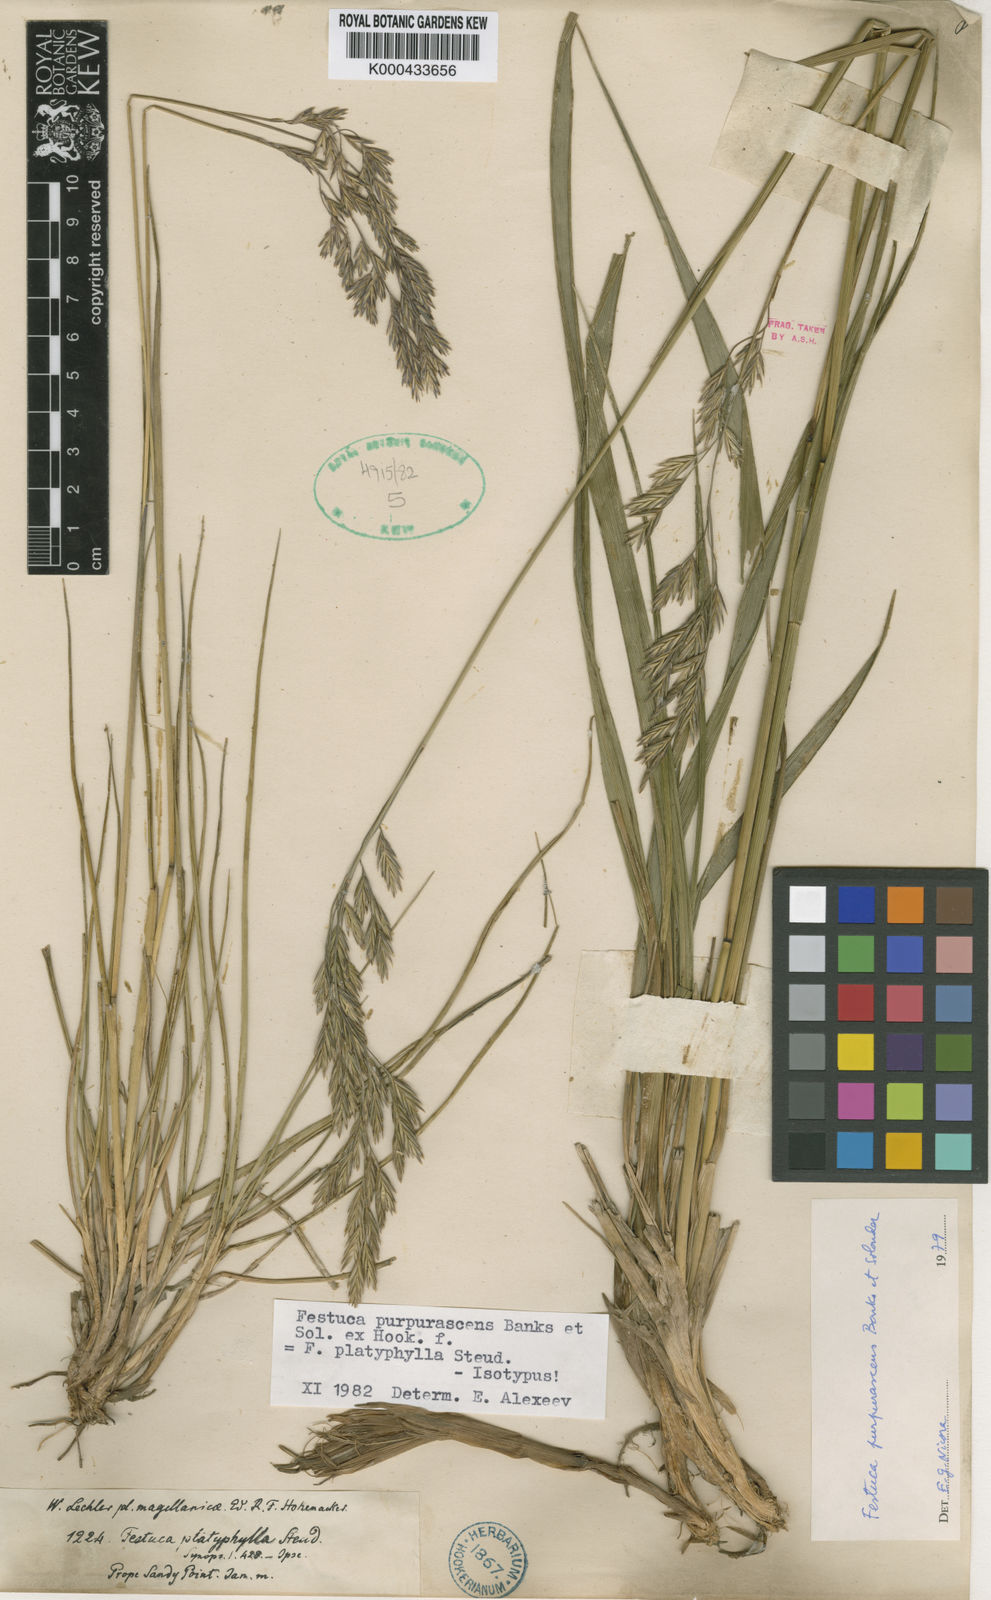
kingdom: Plantae
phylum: Tracheophyta
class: Liliopsida
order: Poales
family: Poaceae
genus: Festuca
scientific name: Festuca purpurascens
